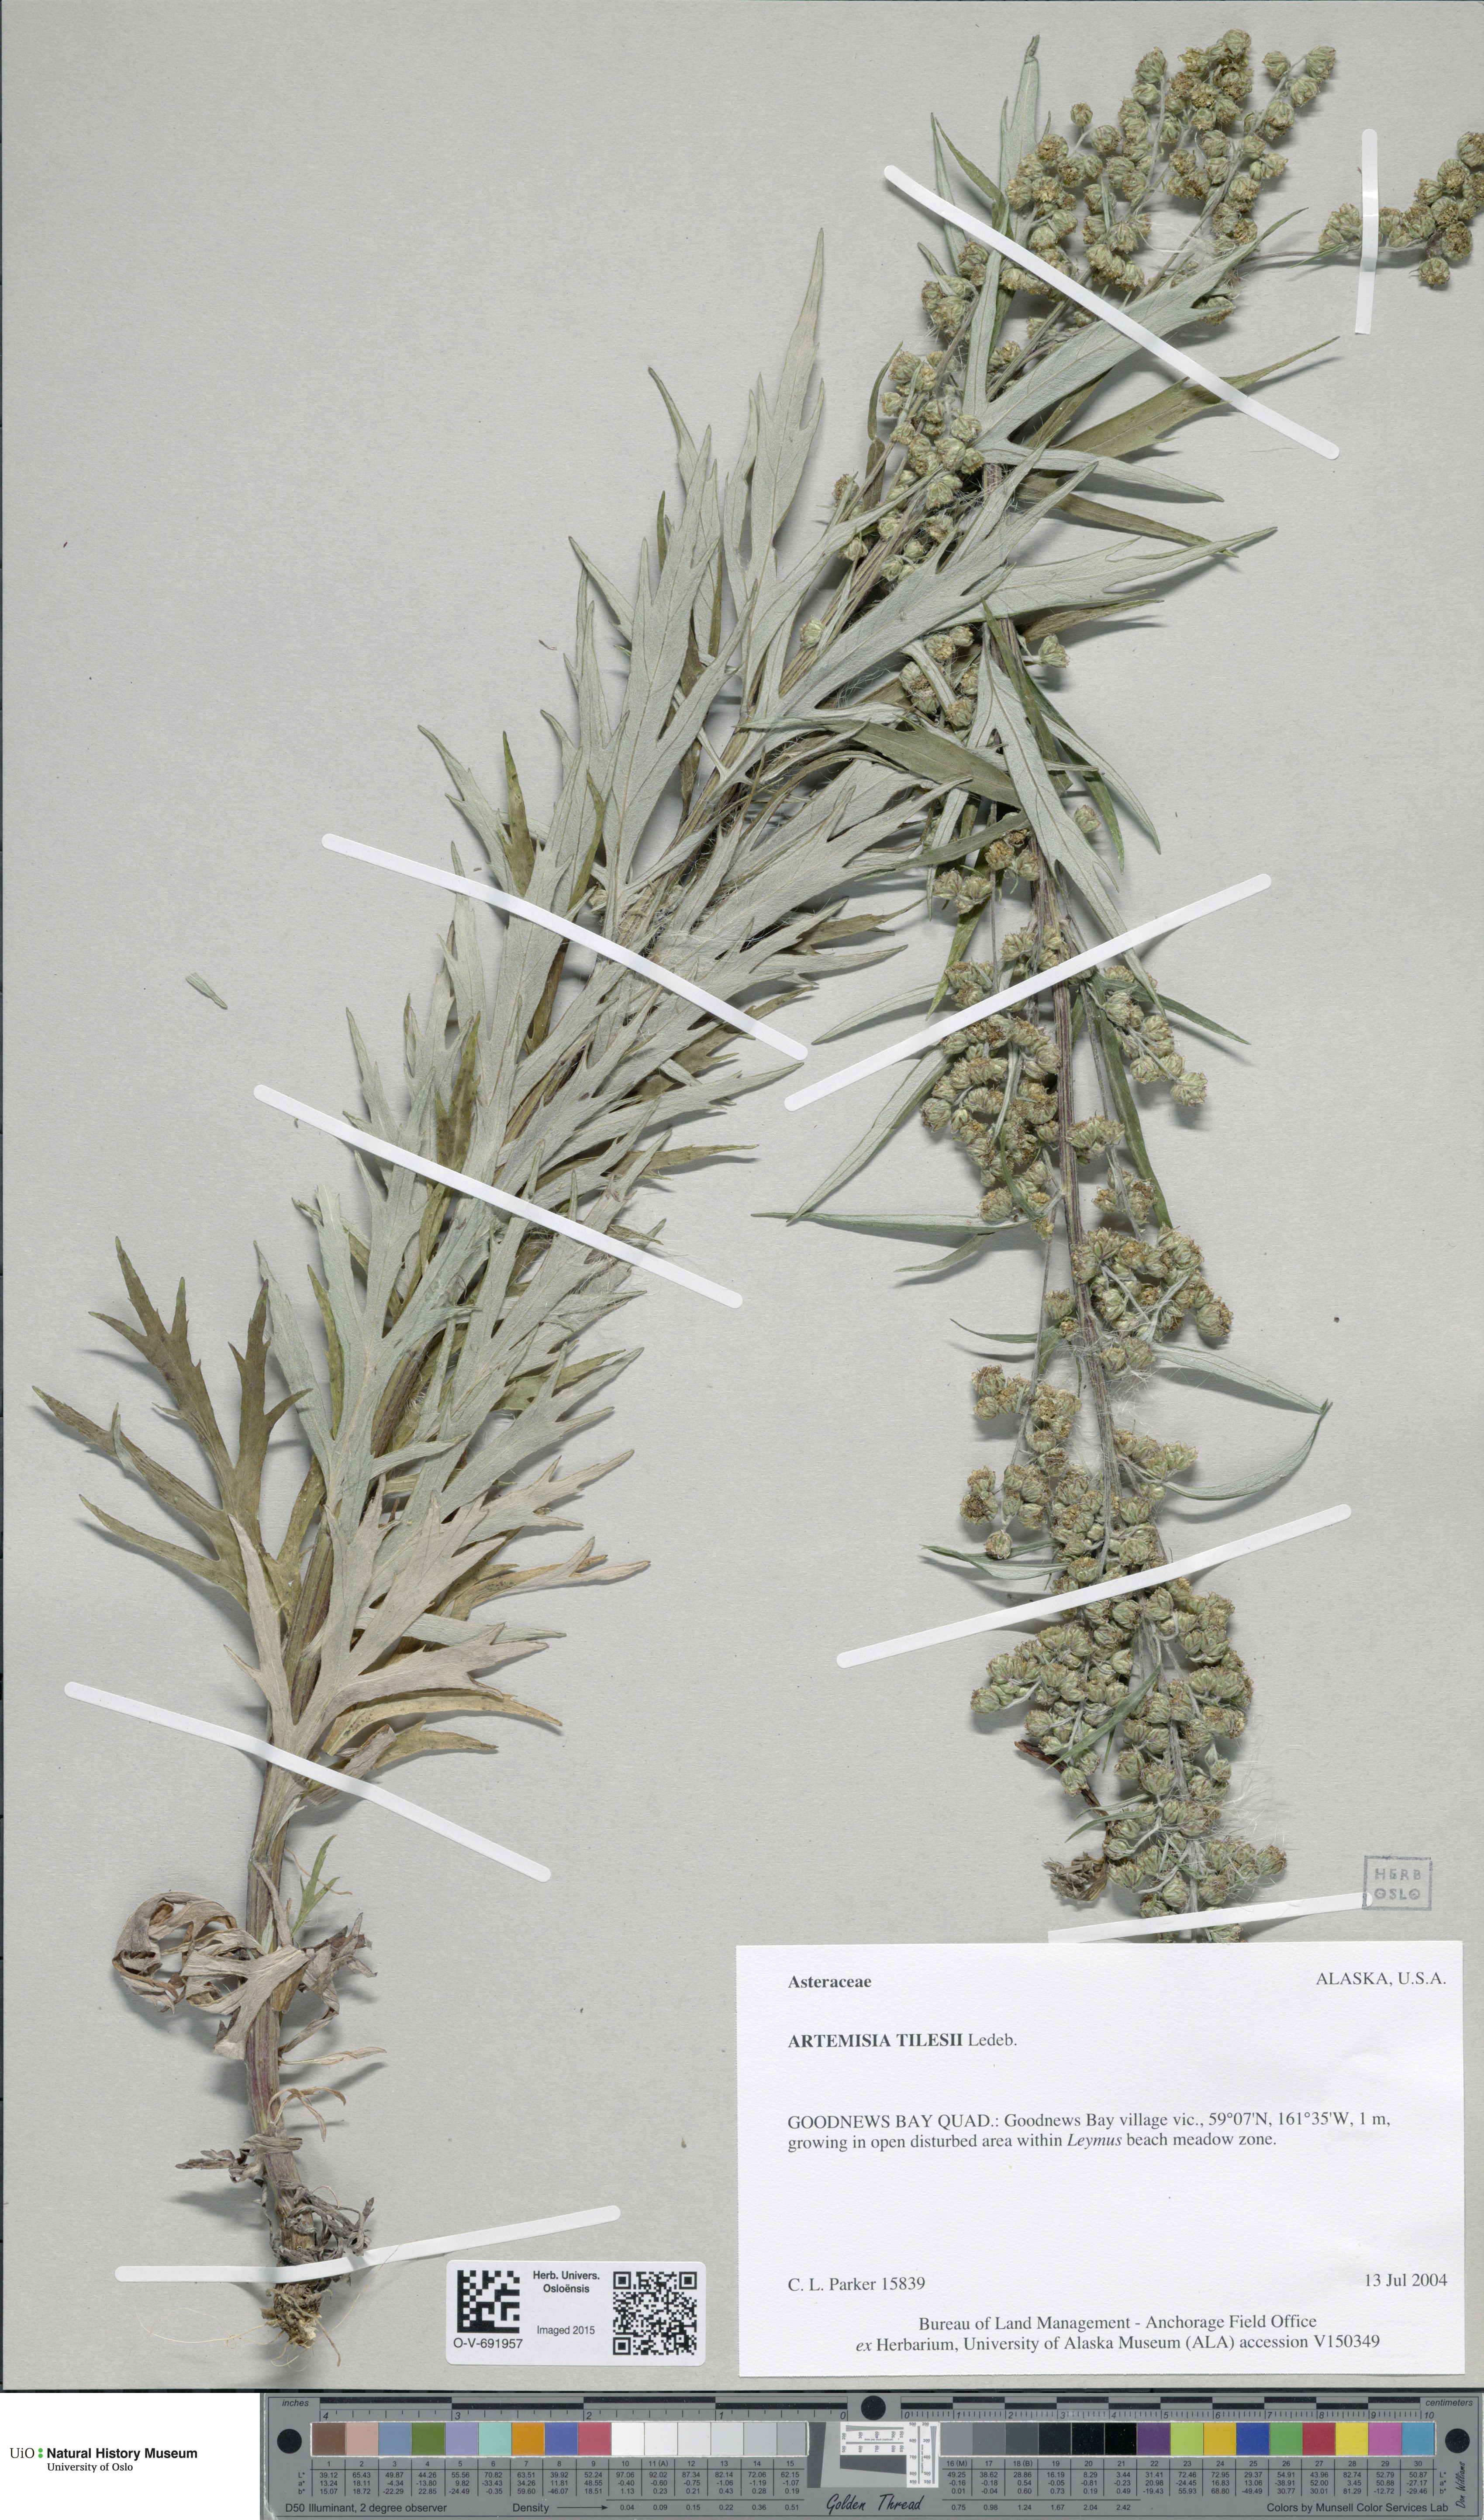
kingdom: Plantae
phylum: Tracheophyta
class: Magnoliopsida
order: Asterales
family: Asteraceae
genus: Artemisia
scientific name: Artemisia tilesii
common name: Aleutian mugwort
